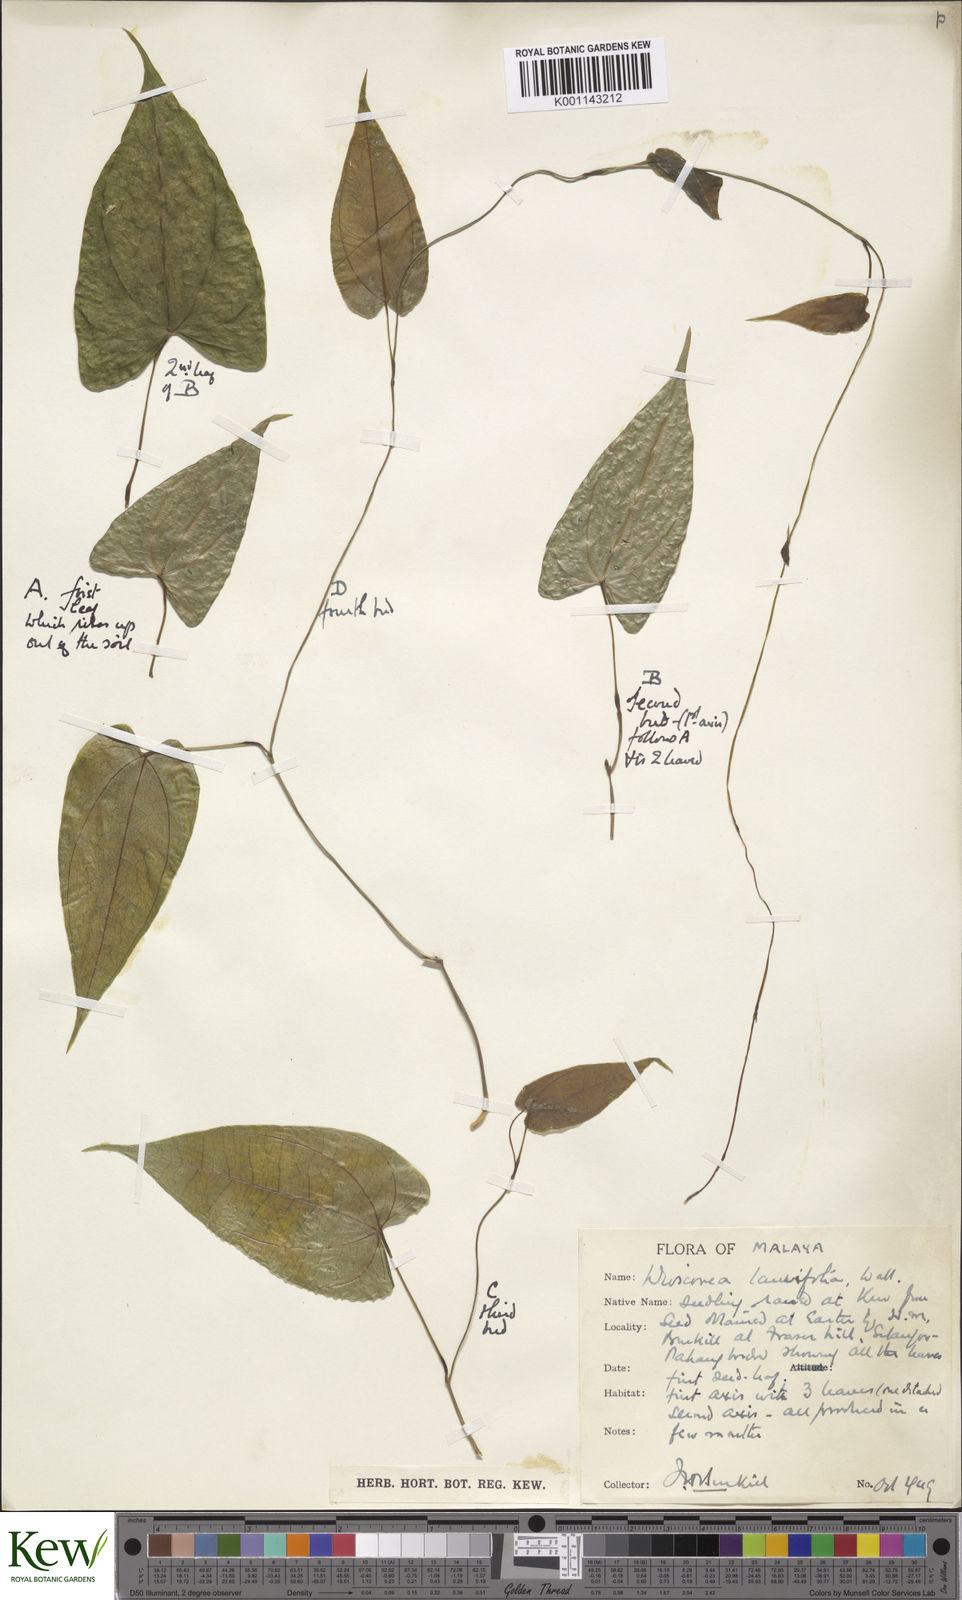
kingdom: Plantae
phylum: Tracheophyta
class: Liliopsida
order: Dioscoreales
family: Dioscoreaceae
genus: Dioscorea
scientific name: Dioscorea laurifolia
